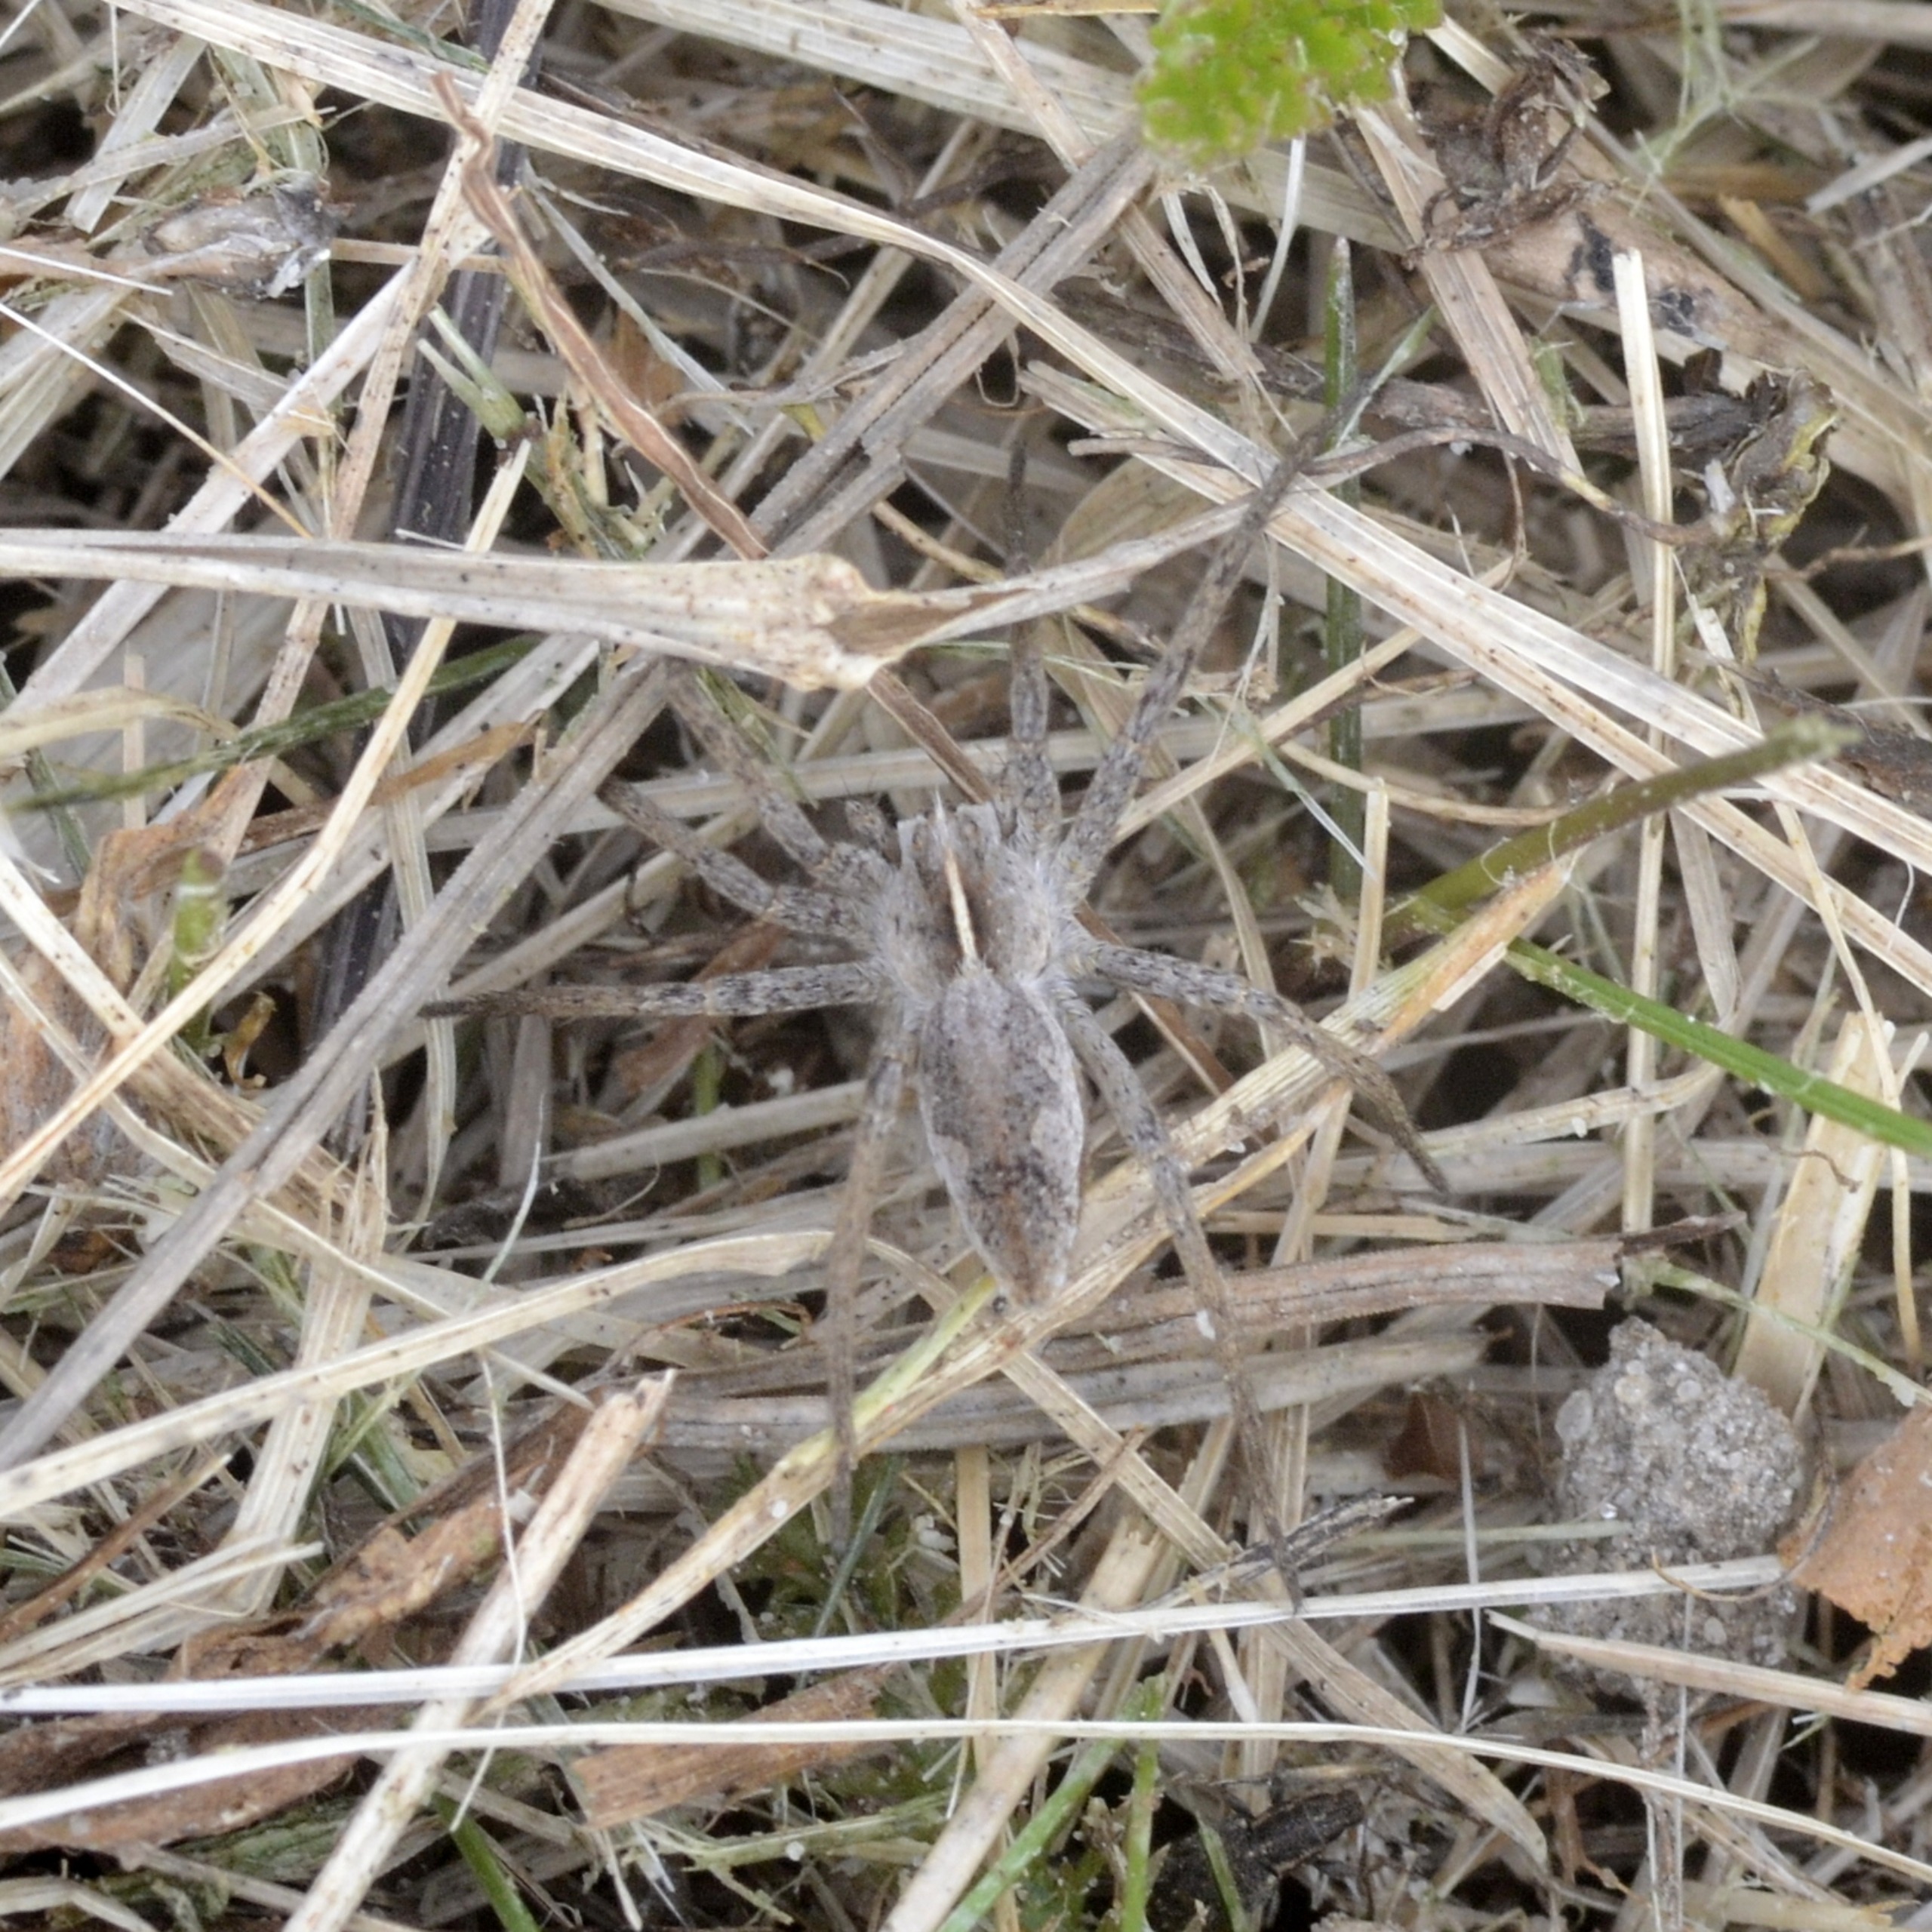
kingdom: Animalia
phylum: Arthropoda
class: Arachnida
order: Araneae
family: Pisauridae
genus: Pisaura
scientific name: Pisaura mirabilis
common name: Almindelig rovedderkop
